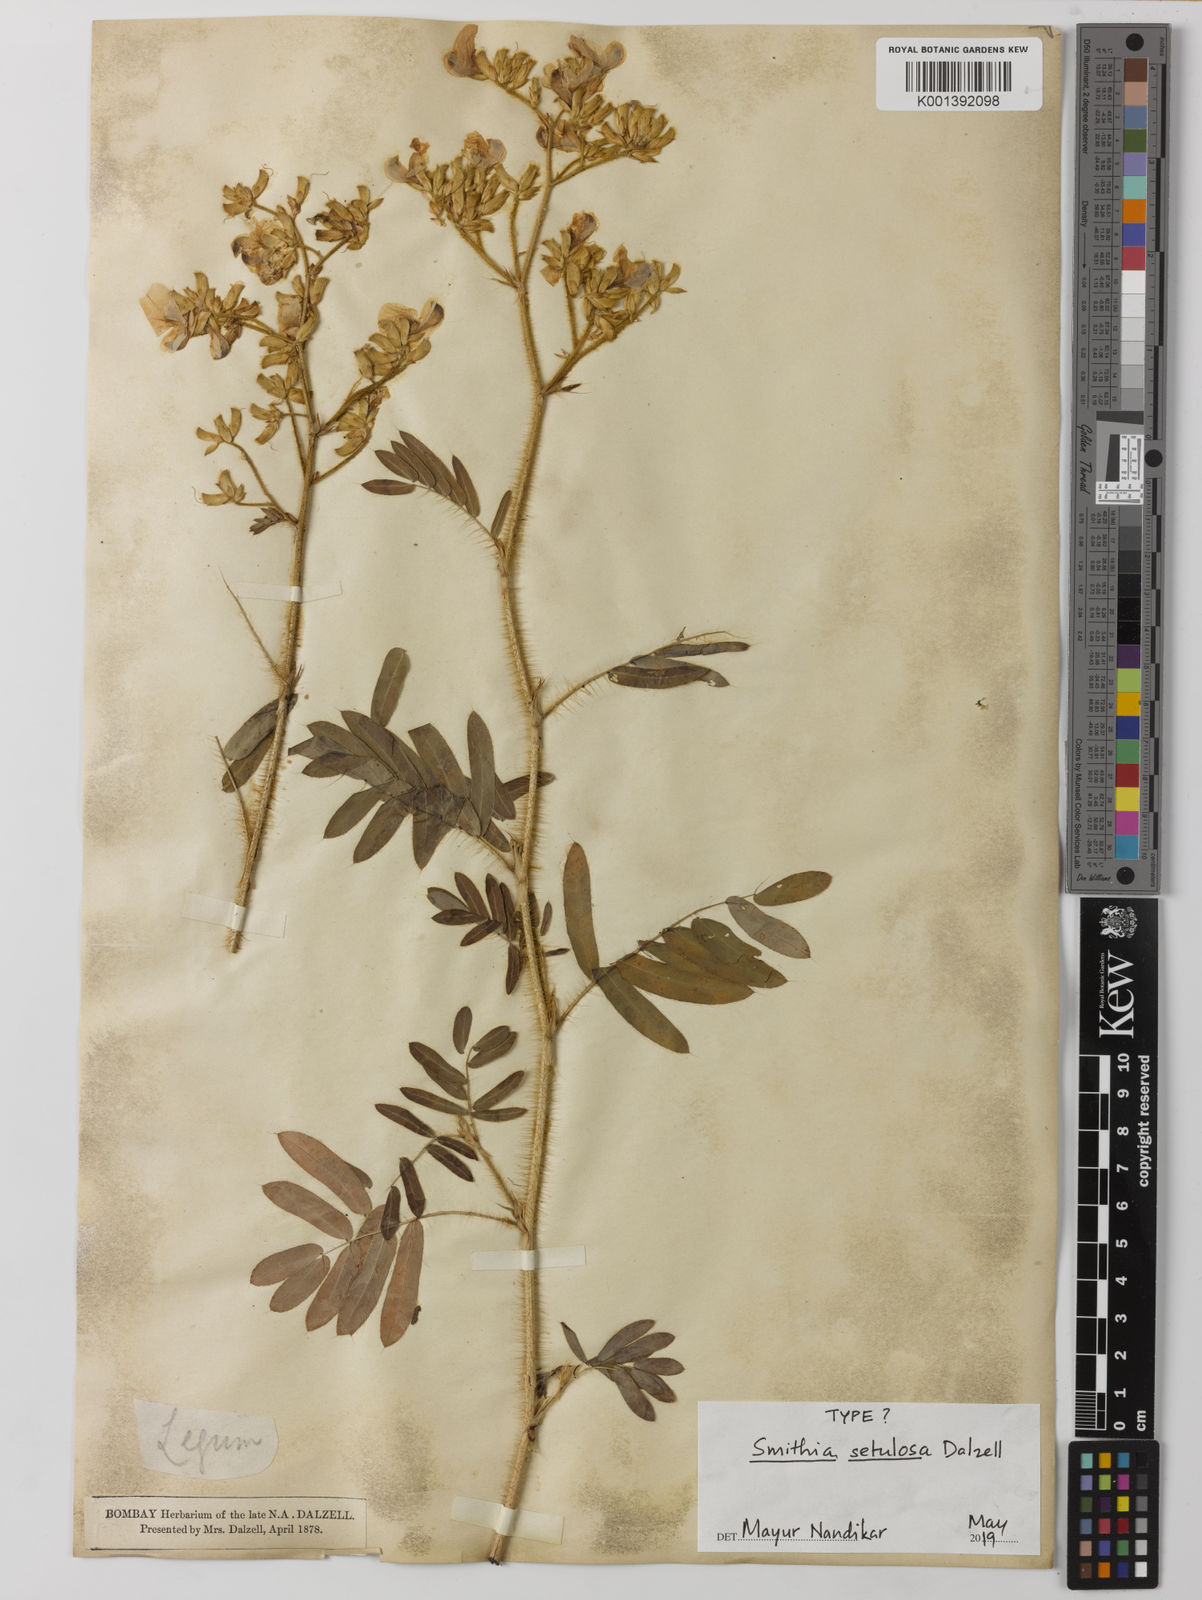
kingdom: Plantae
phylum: Tracheophyta
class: Magnoliopsida
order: Fabales
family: Fabaceae
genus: Smithia
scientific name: Smithia setulosa
